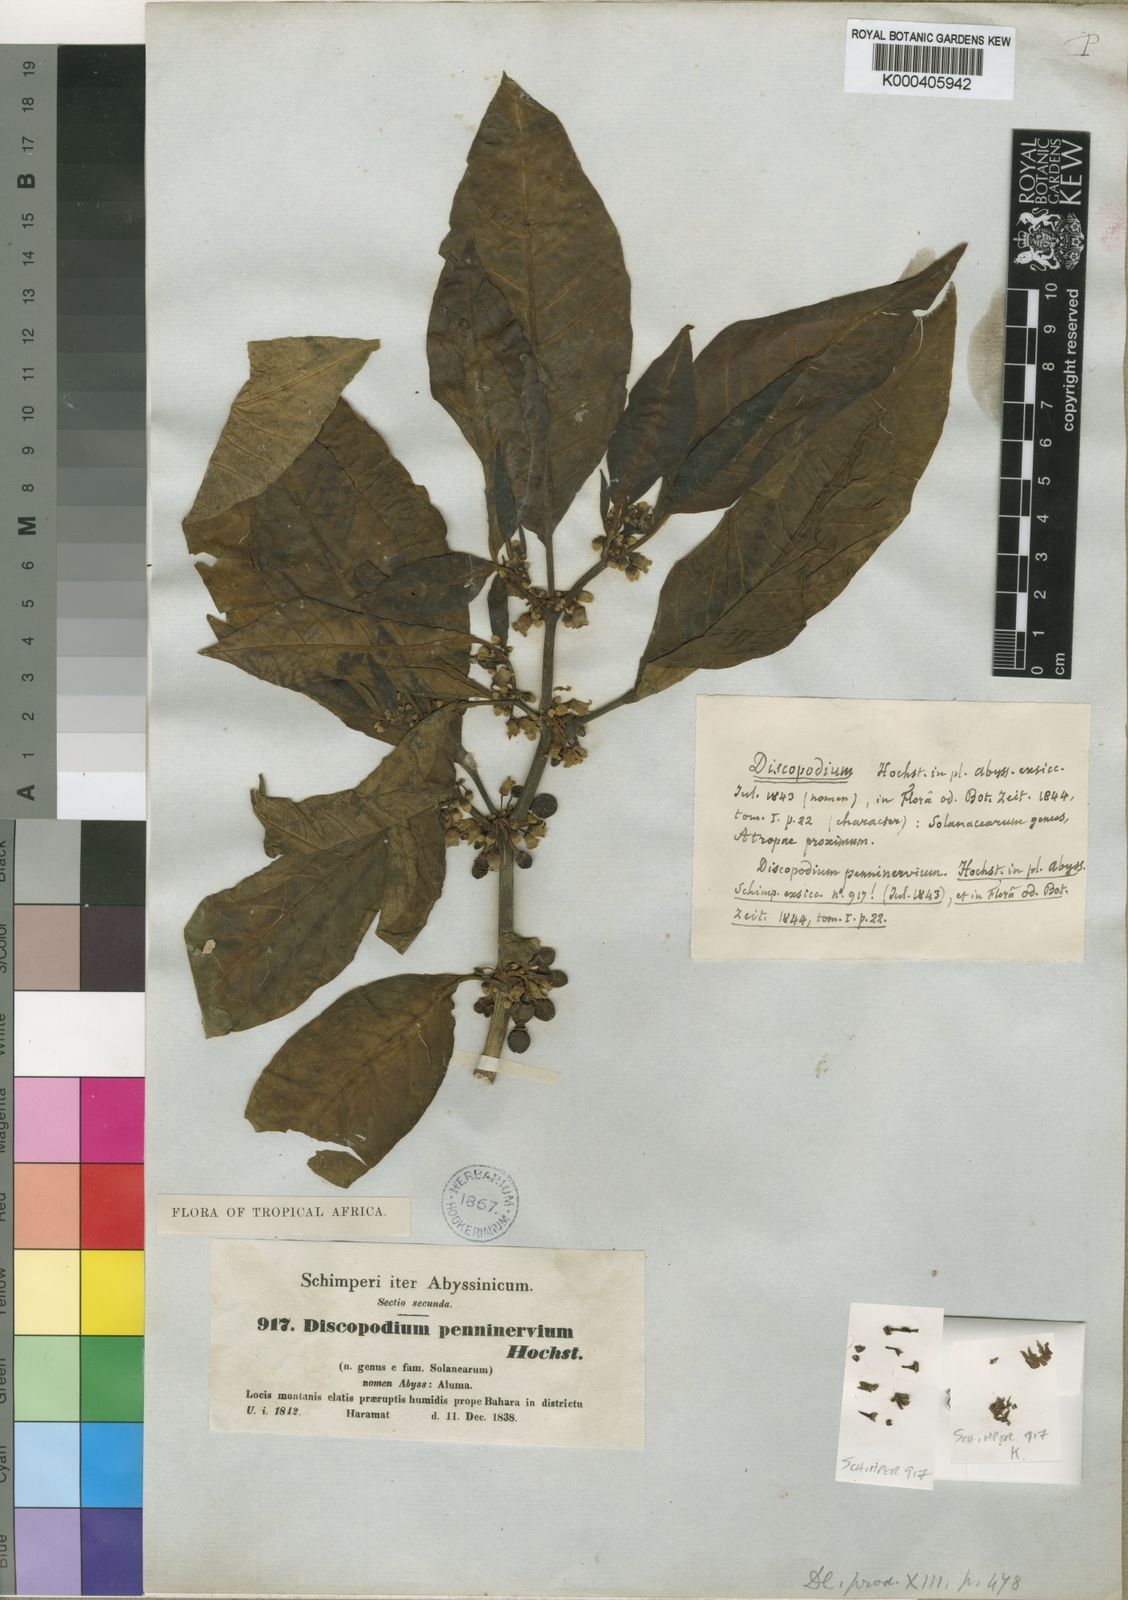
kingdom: Plantae
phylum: Tracheophyta
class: Magnoliopsida
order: Solanales
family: Solanaceae
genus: Discopodium
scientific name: Discopodium penninervium
